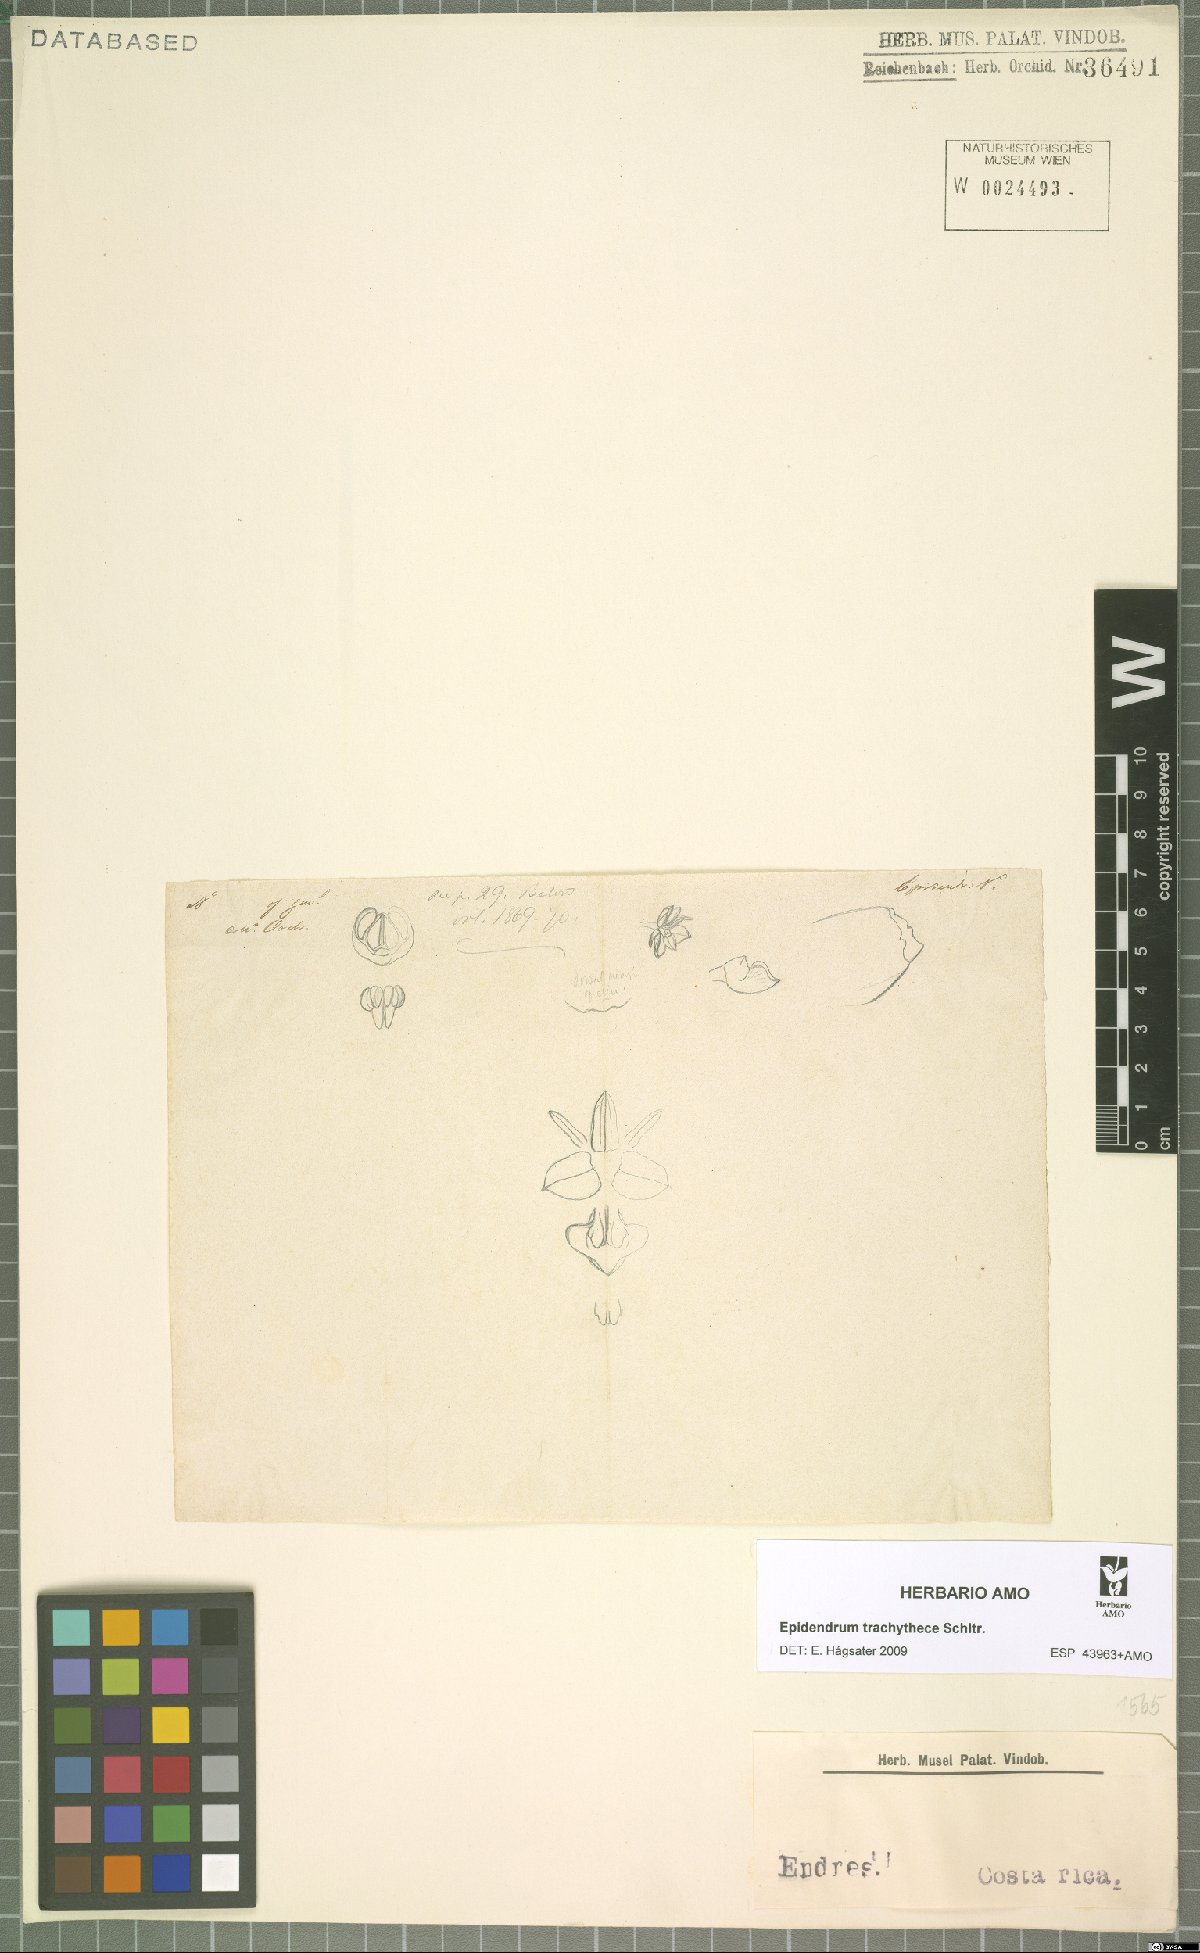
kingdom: Plantae
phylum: Tracheophyta
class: Liliopsida
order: Asparagales
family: Orchidaceae
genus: Epidendrum
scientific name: Epidendrum trachythece
